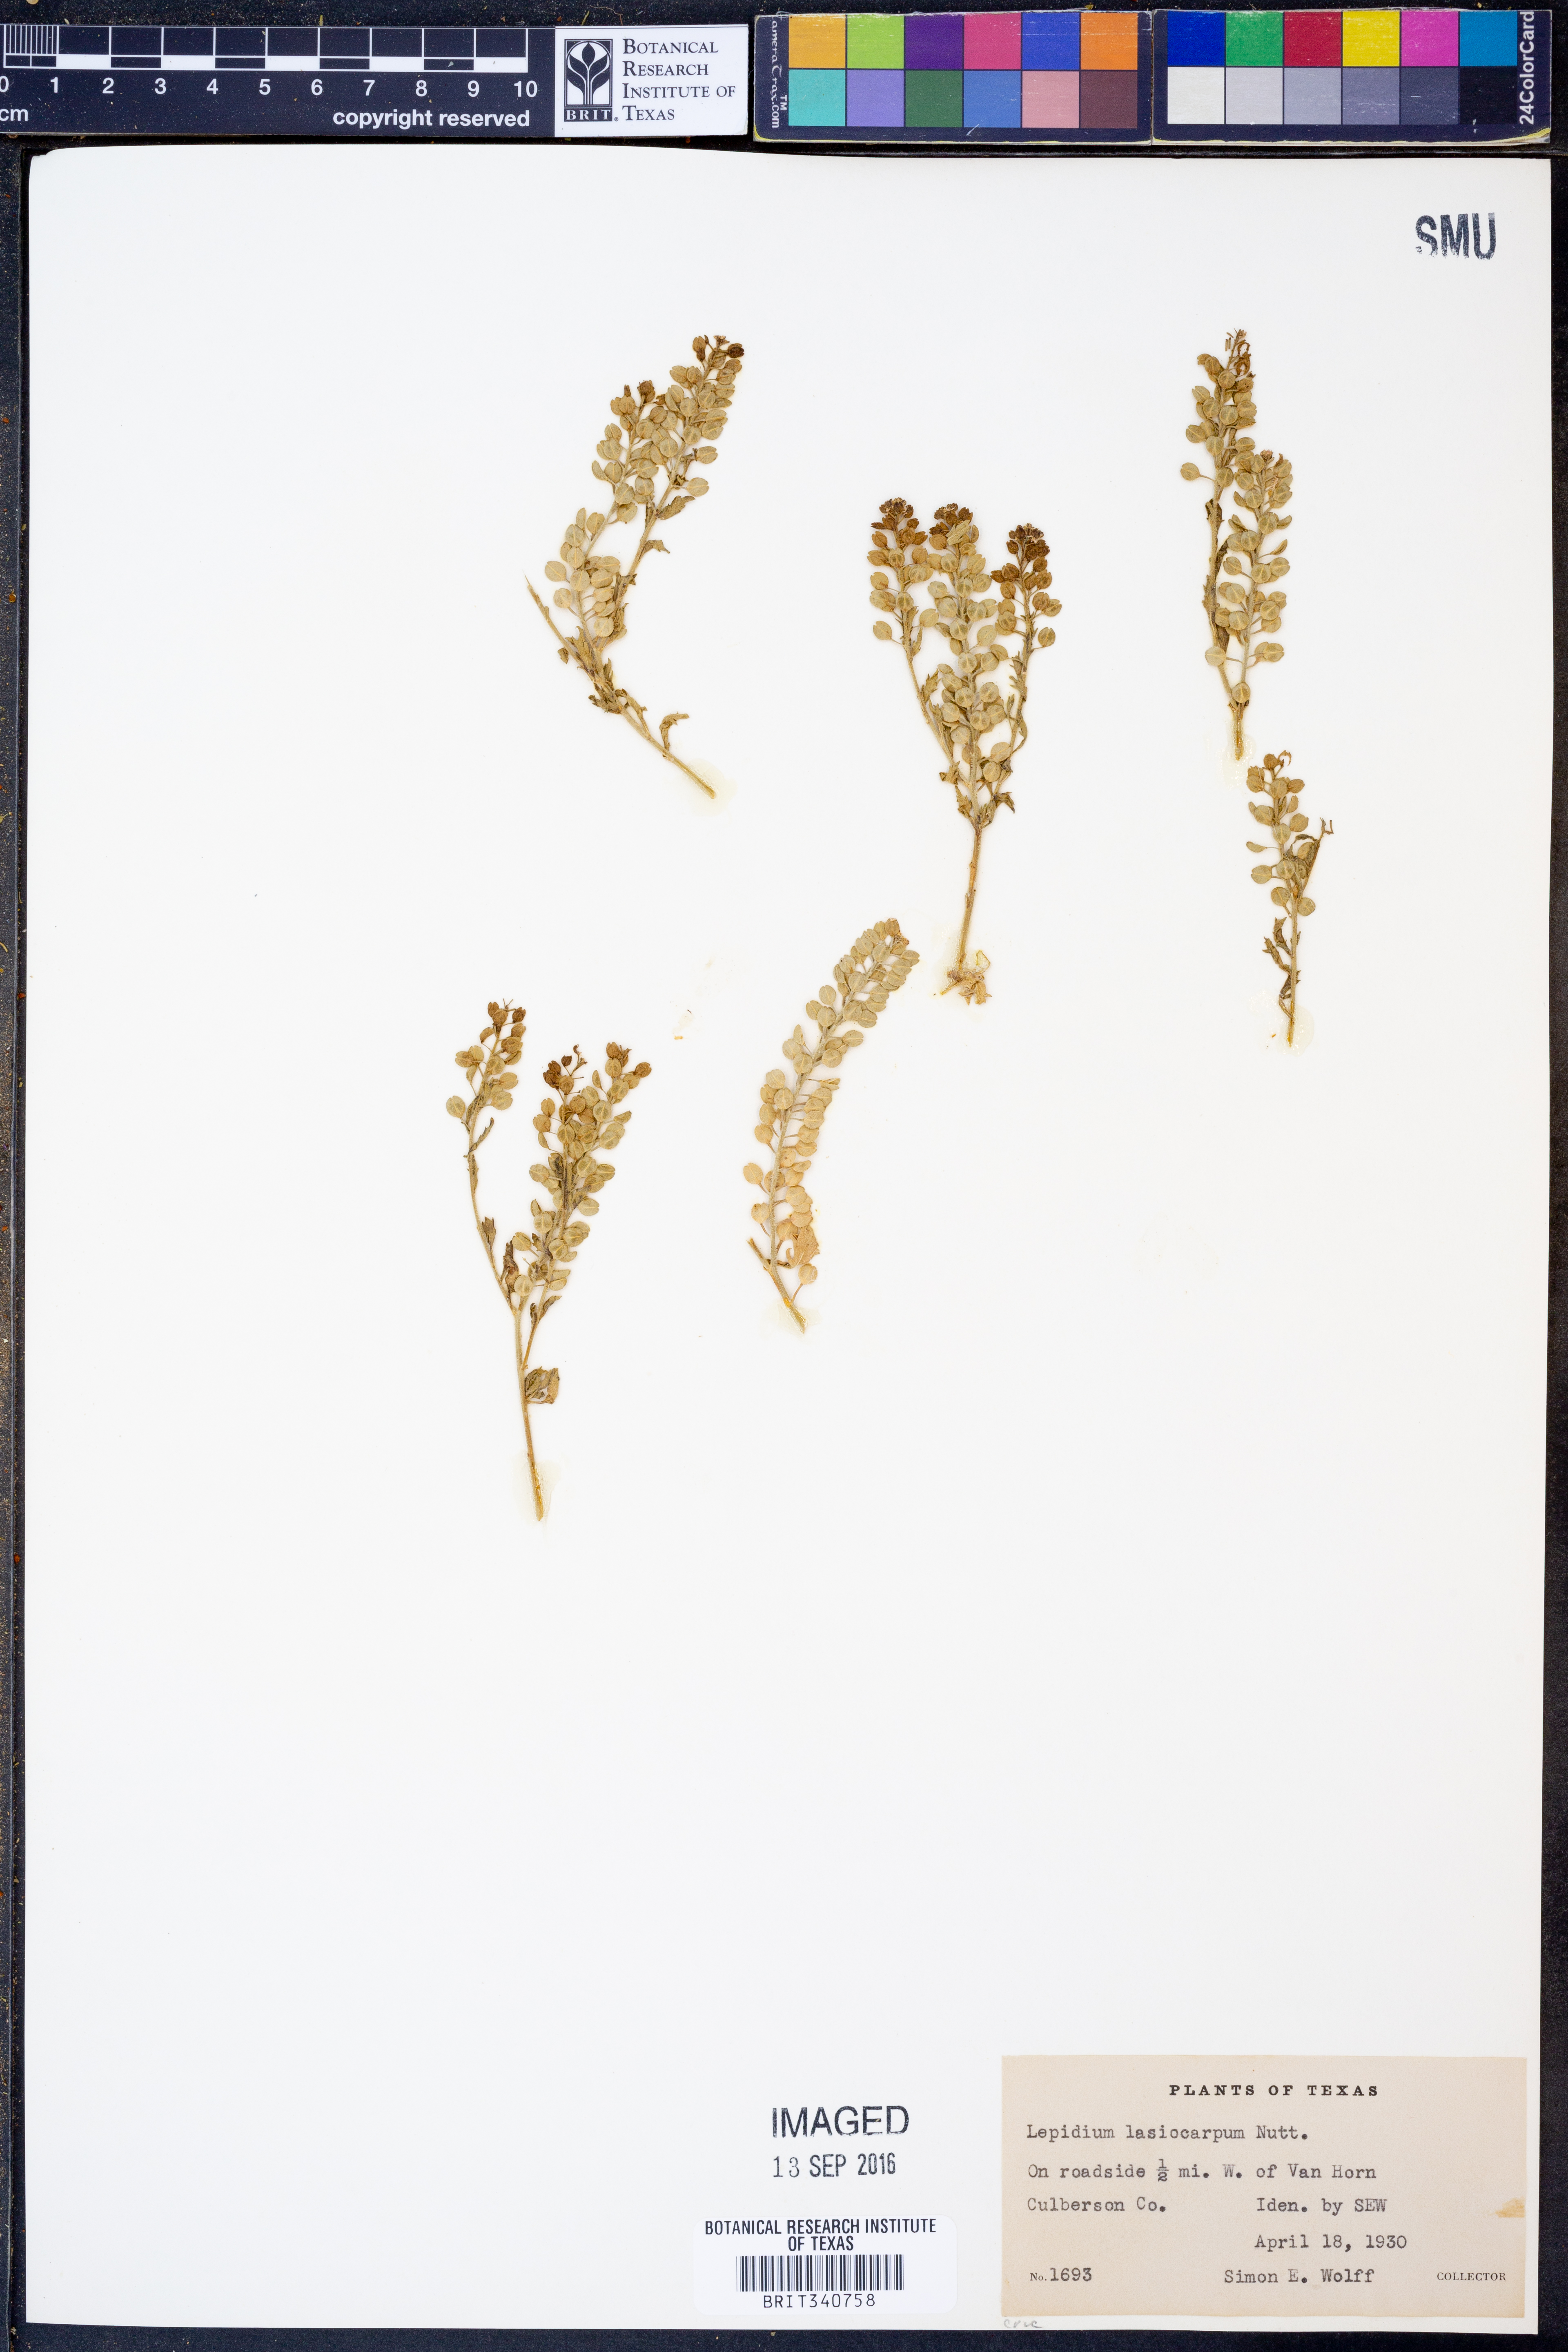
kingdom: Plantae
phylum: Tracheophyta
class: Magnoliopsida
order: Brassicales
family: Brassicaceae
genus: Lepidium
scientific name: Lepidium lasiocarpum
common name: Hairy-pod pepperwort
